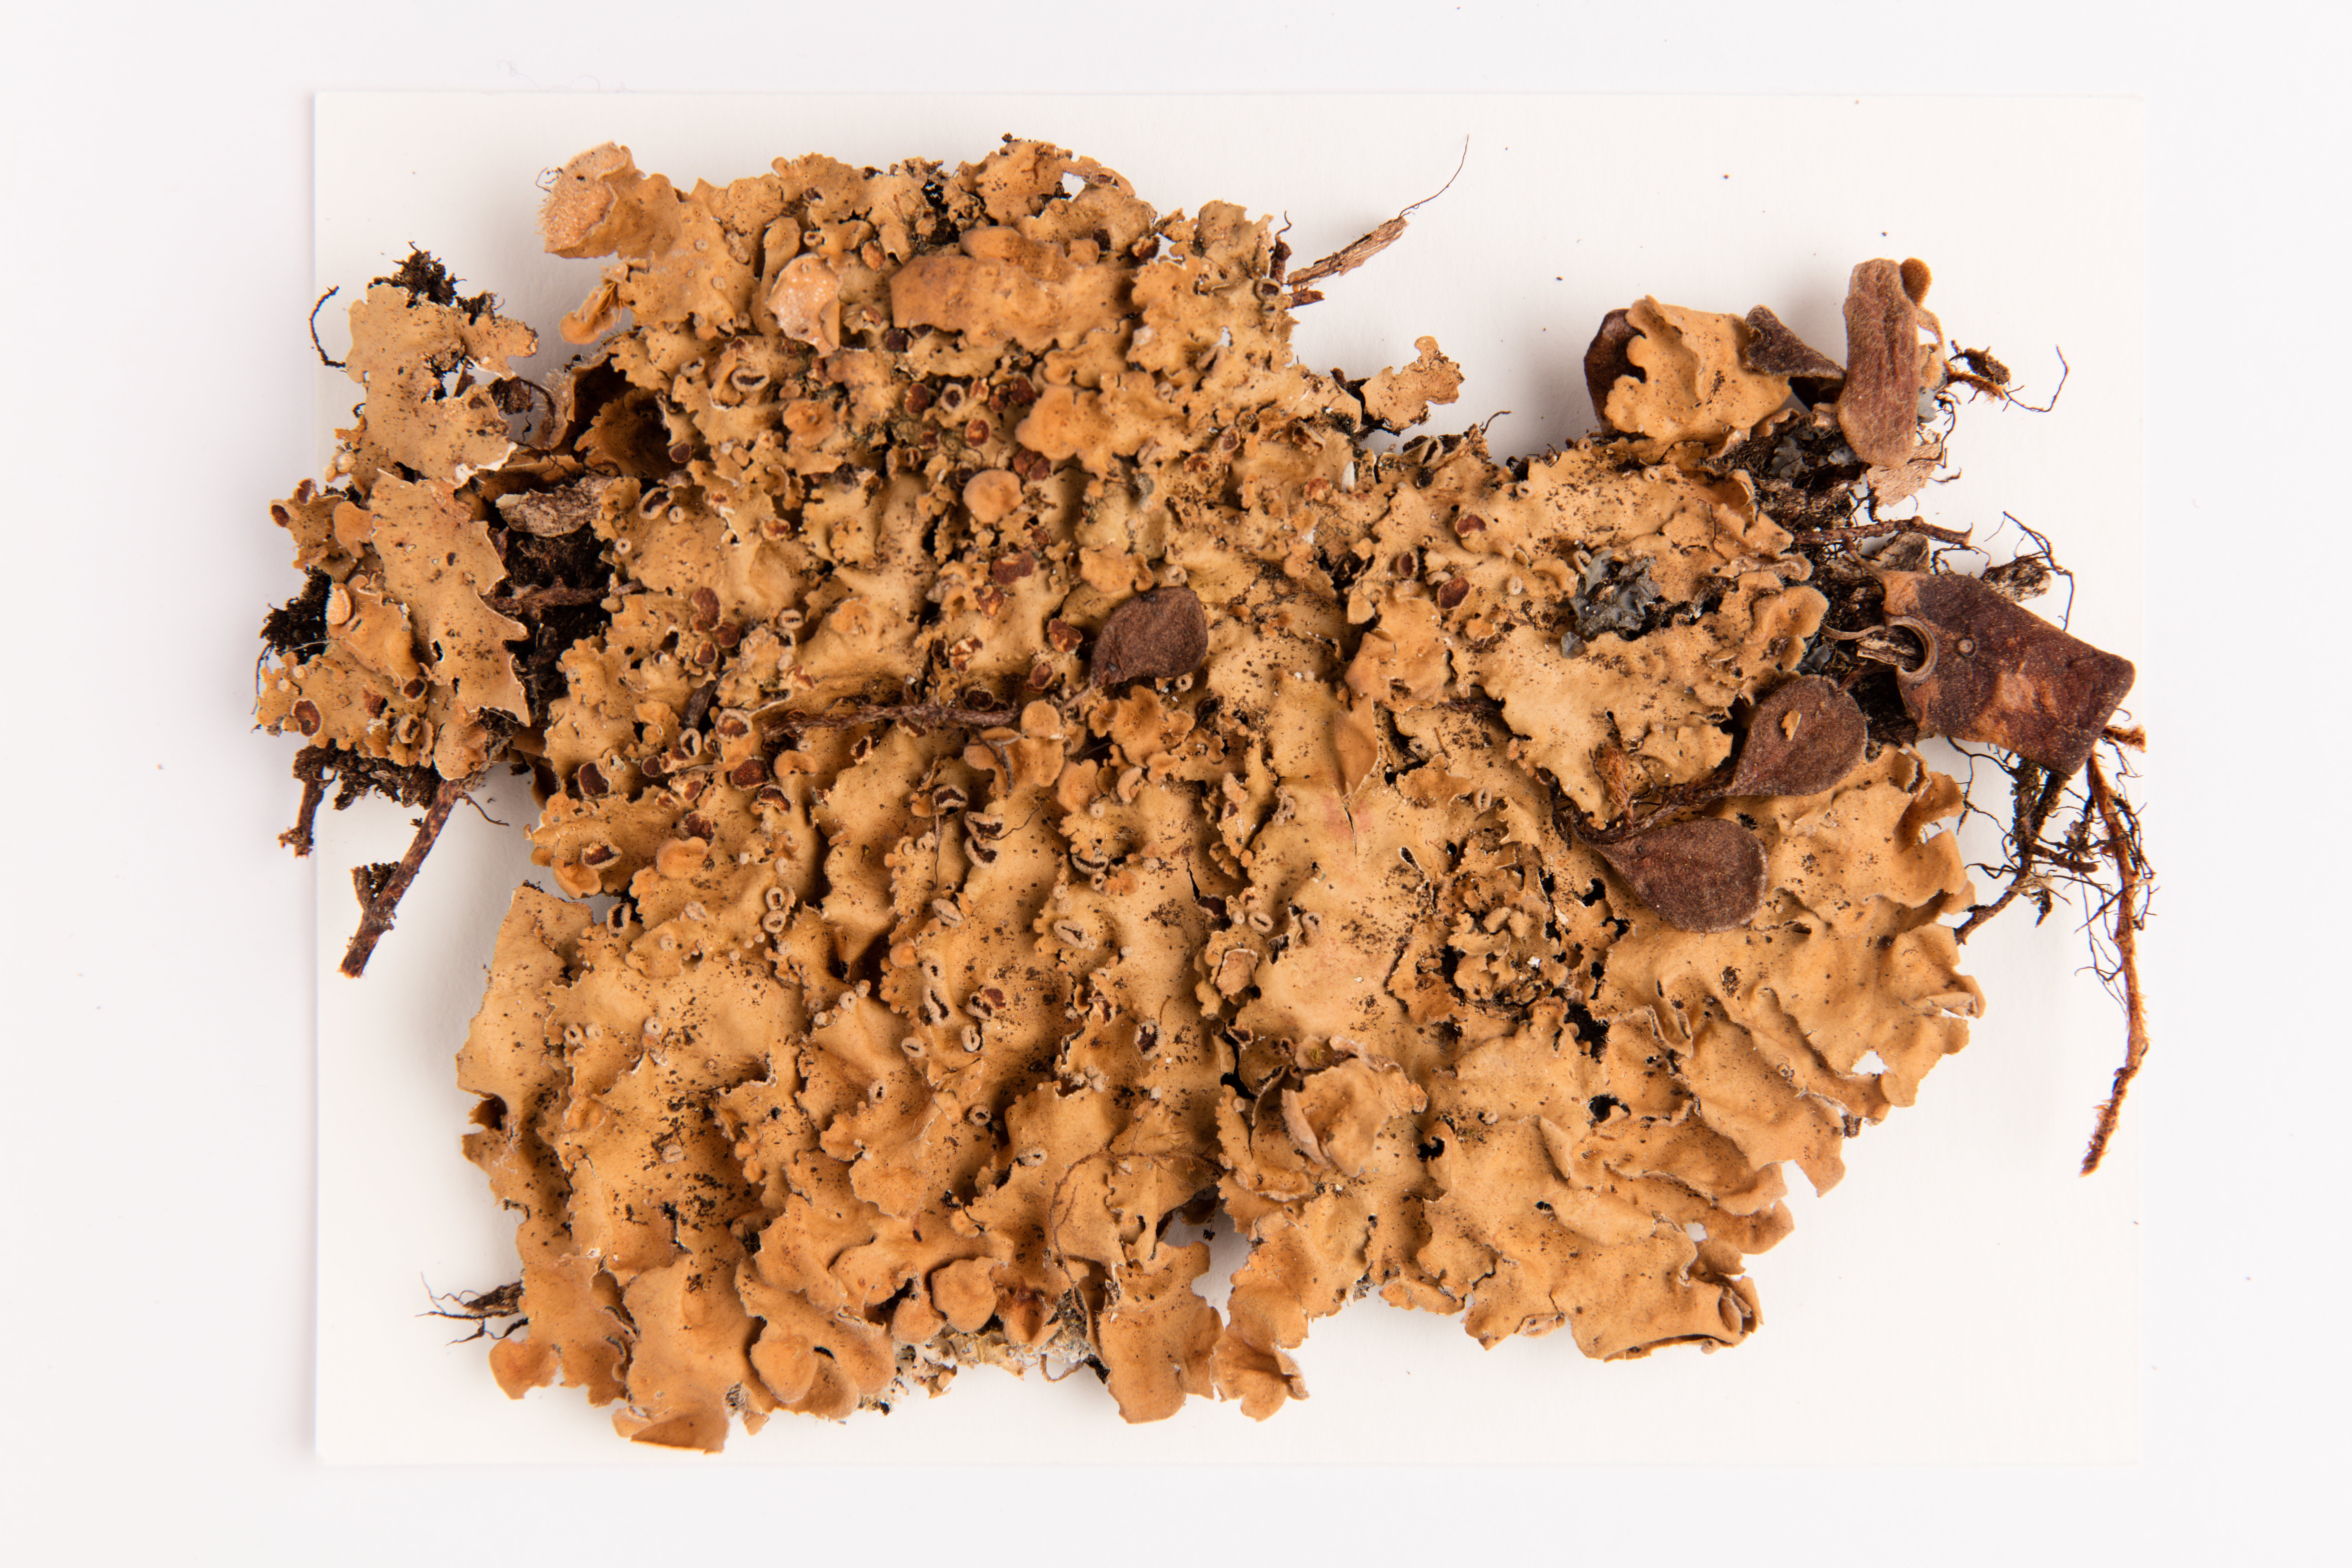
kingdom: Fungi
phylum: Ascomycota
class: Lecanoromycetes
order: Peltigerales
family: Lobariaceae
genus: Pseudocyphellaria
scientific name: Pseudocyphellaria coriacea
